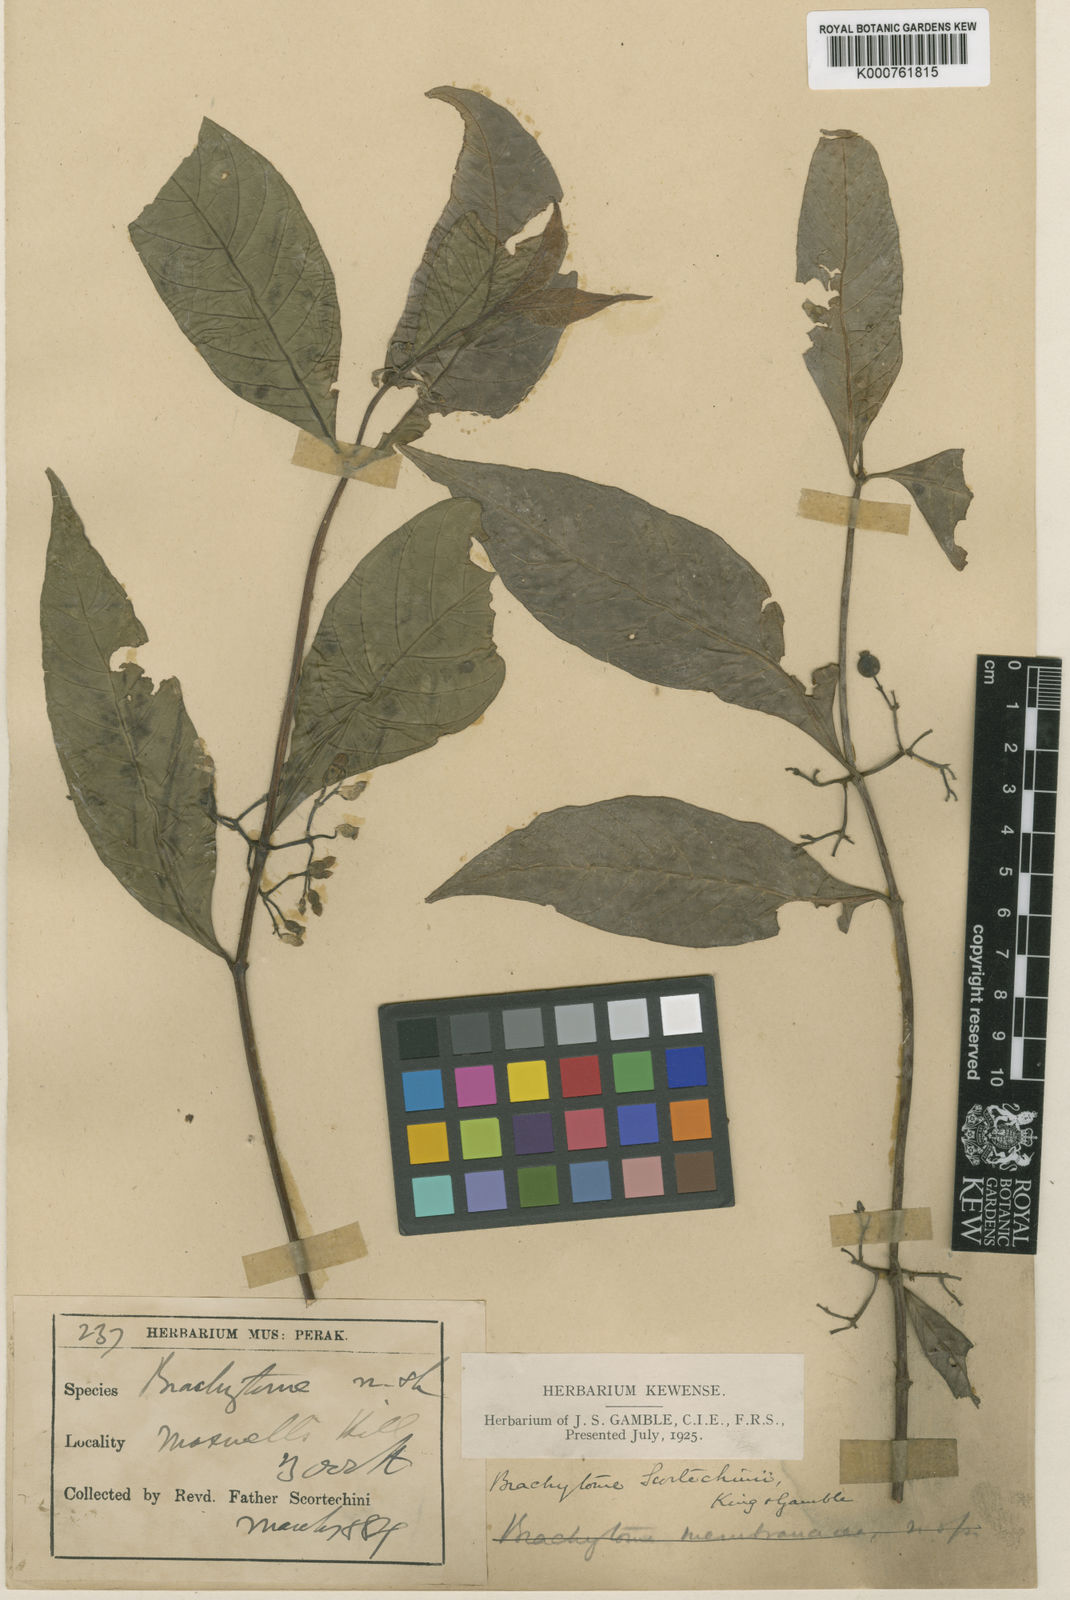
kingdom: Plantae
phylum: Tracheophyta
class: Magnoliopsida
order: Gentianales
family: Rubiaceae
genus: Brachytome
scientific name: Brachytome scortechinii
